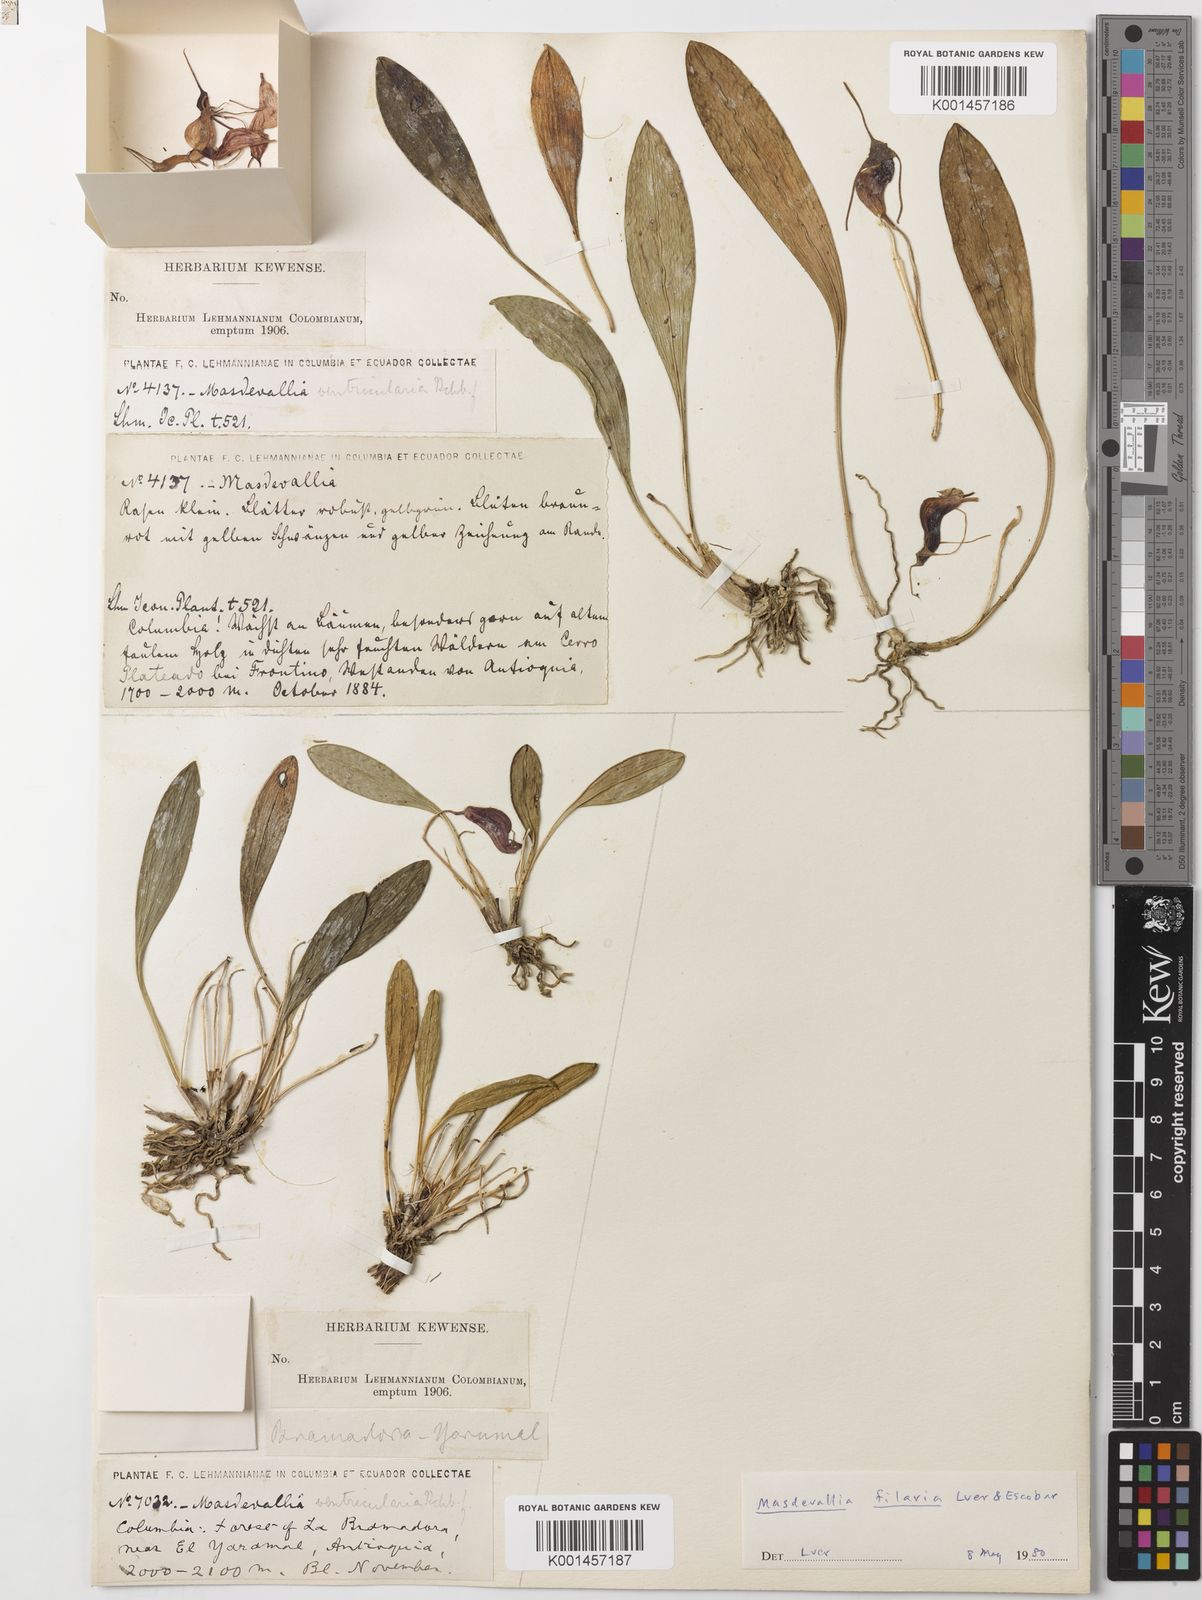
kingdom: Plantae
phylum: Tracheophyta
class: Liliopsida
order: Asparagales
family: Orchidaceae
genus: Masdevallia
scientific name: Masdevallia ventricularia
